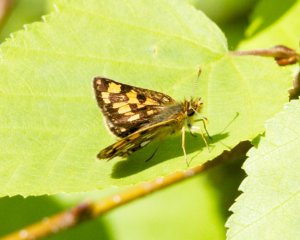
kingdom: Animalia
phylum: Arthropoda
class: Insecta
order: Lepidoptera
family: Hesperiidae
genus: Carterocephalus
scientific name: Carterocephalus palaemon
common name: Chequered Skipper
